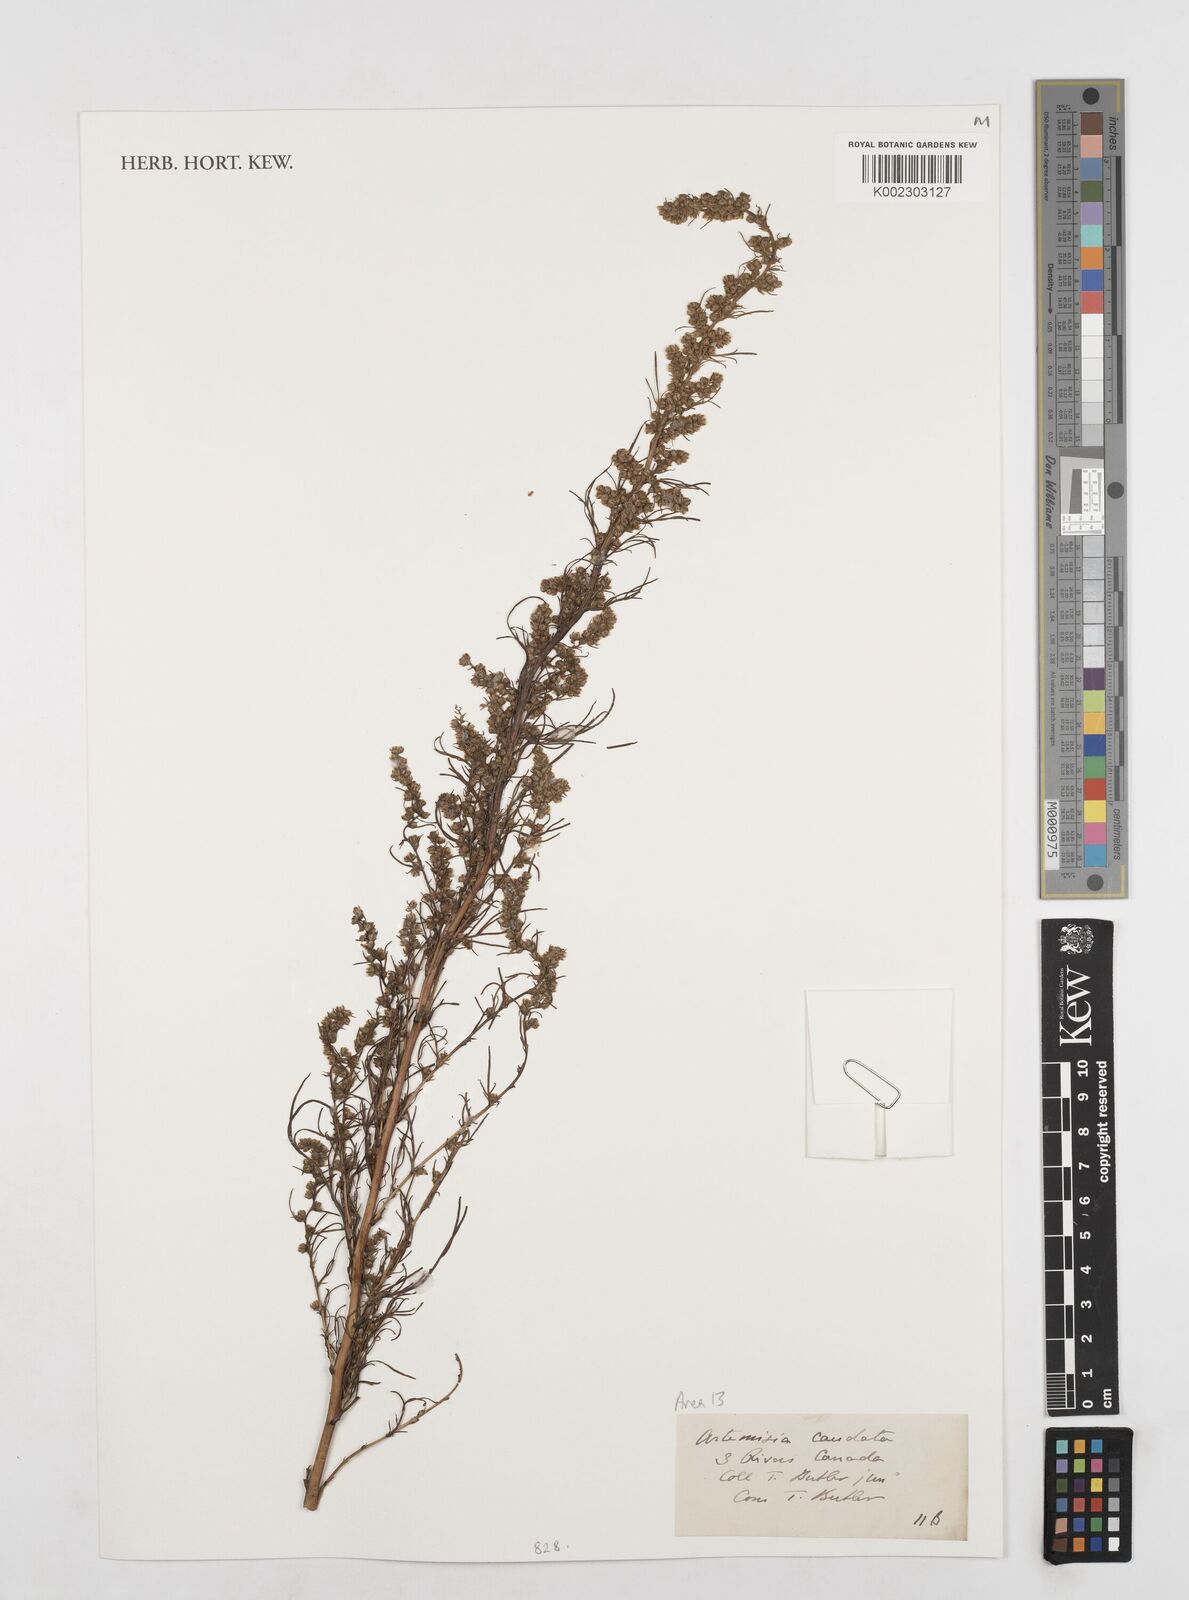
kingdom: Plantae
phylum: Tracheophyta
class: Magnoliopsida
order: Asterales
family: Asteraceae
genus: Artemisia
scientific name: Artemisia campestris
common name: Field wormwood
